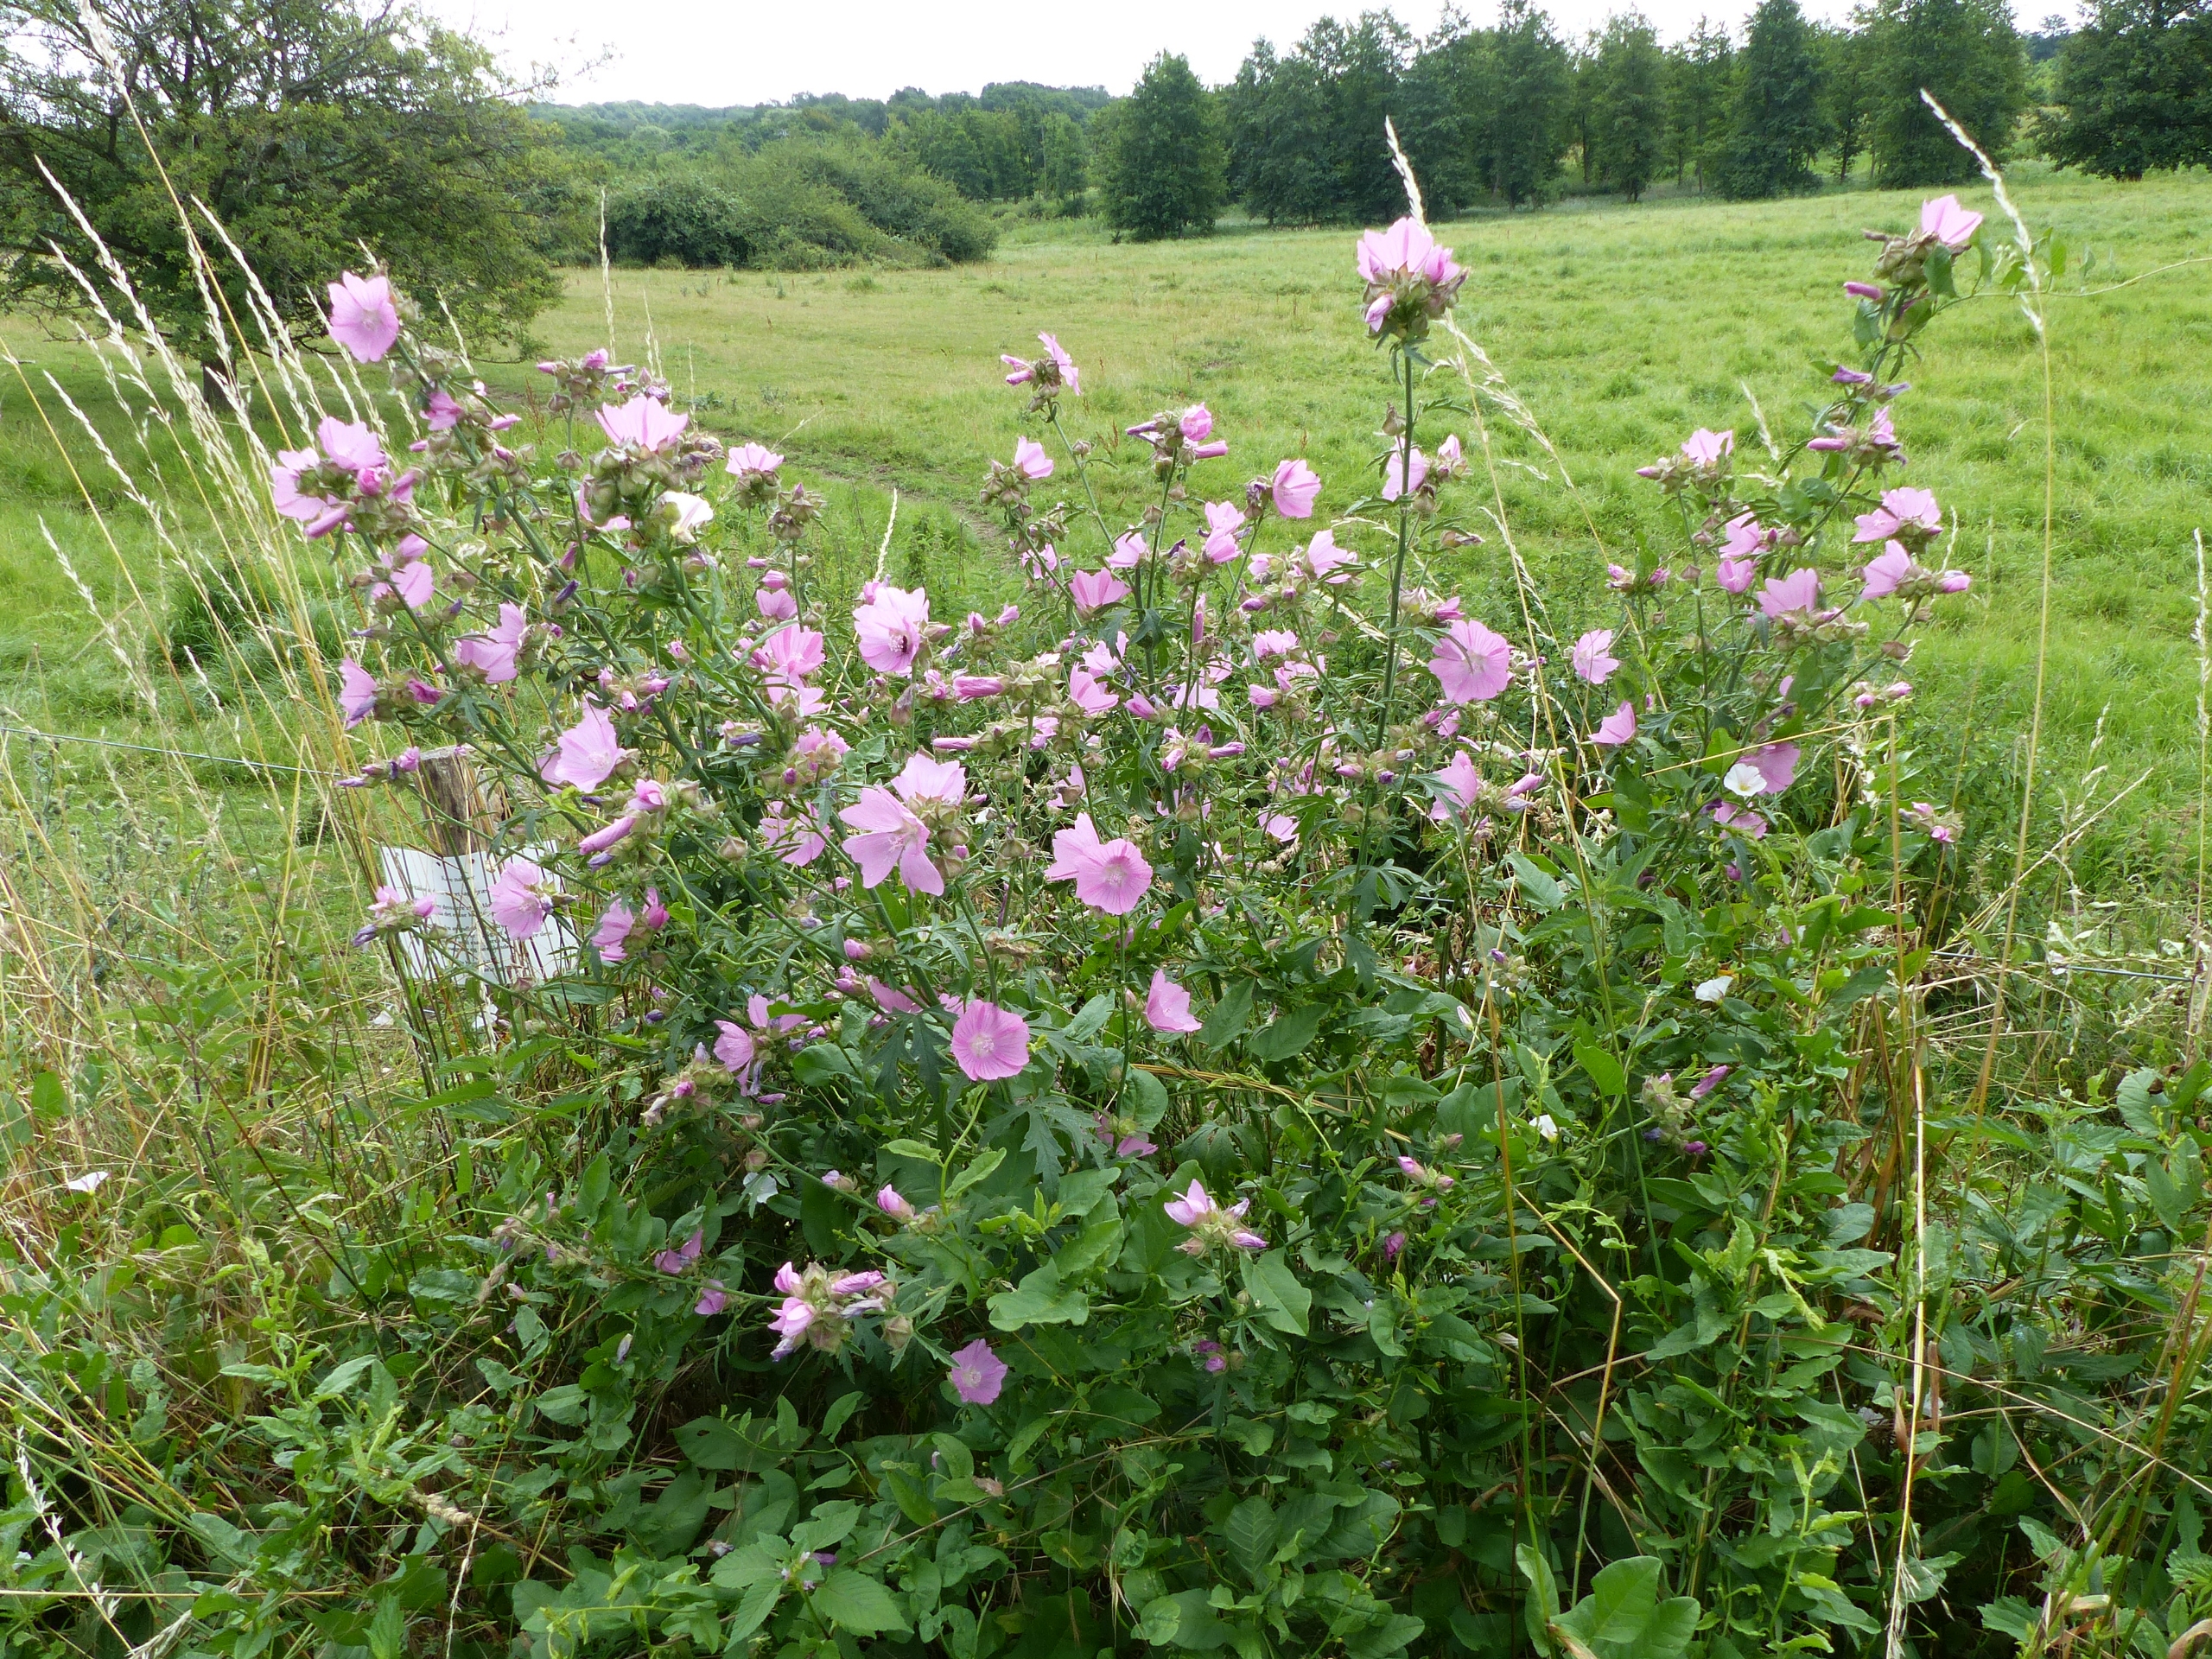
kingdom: Plantae
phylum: Tracheophyta
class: Magnoliopsida
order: Malvales
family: Malvaceae
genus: Malva
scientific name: Malva alcea
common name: Rosen-katost
